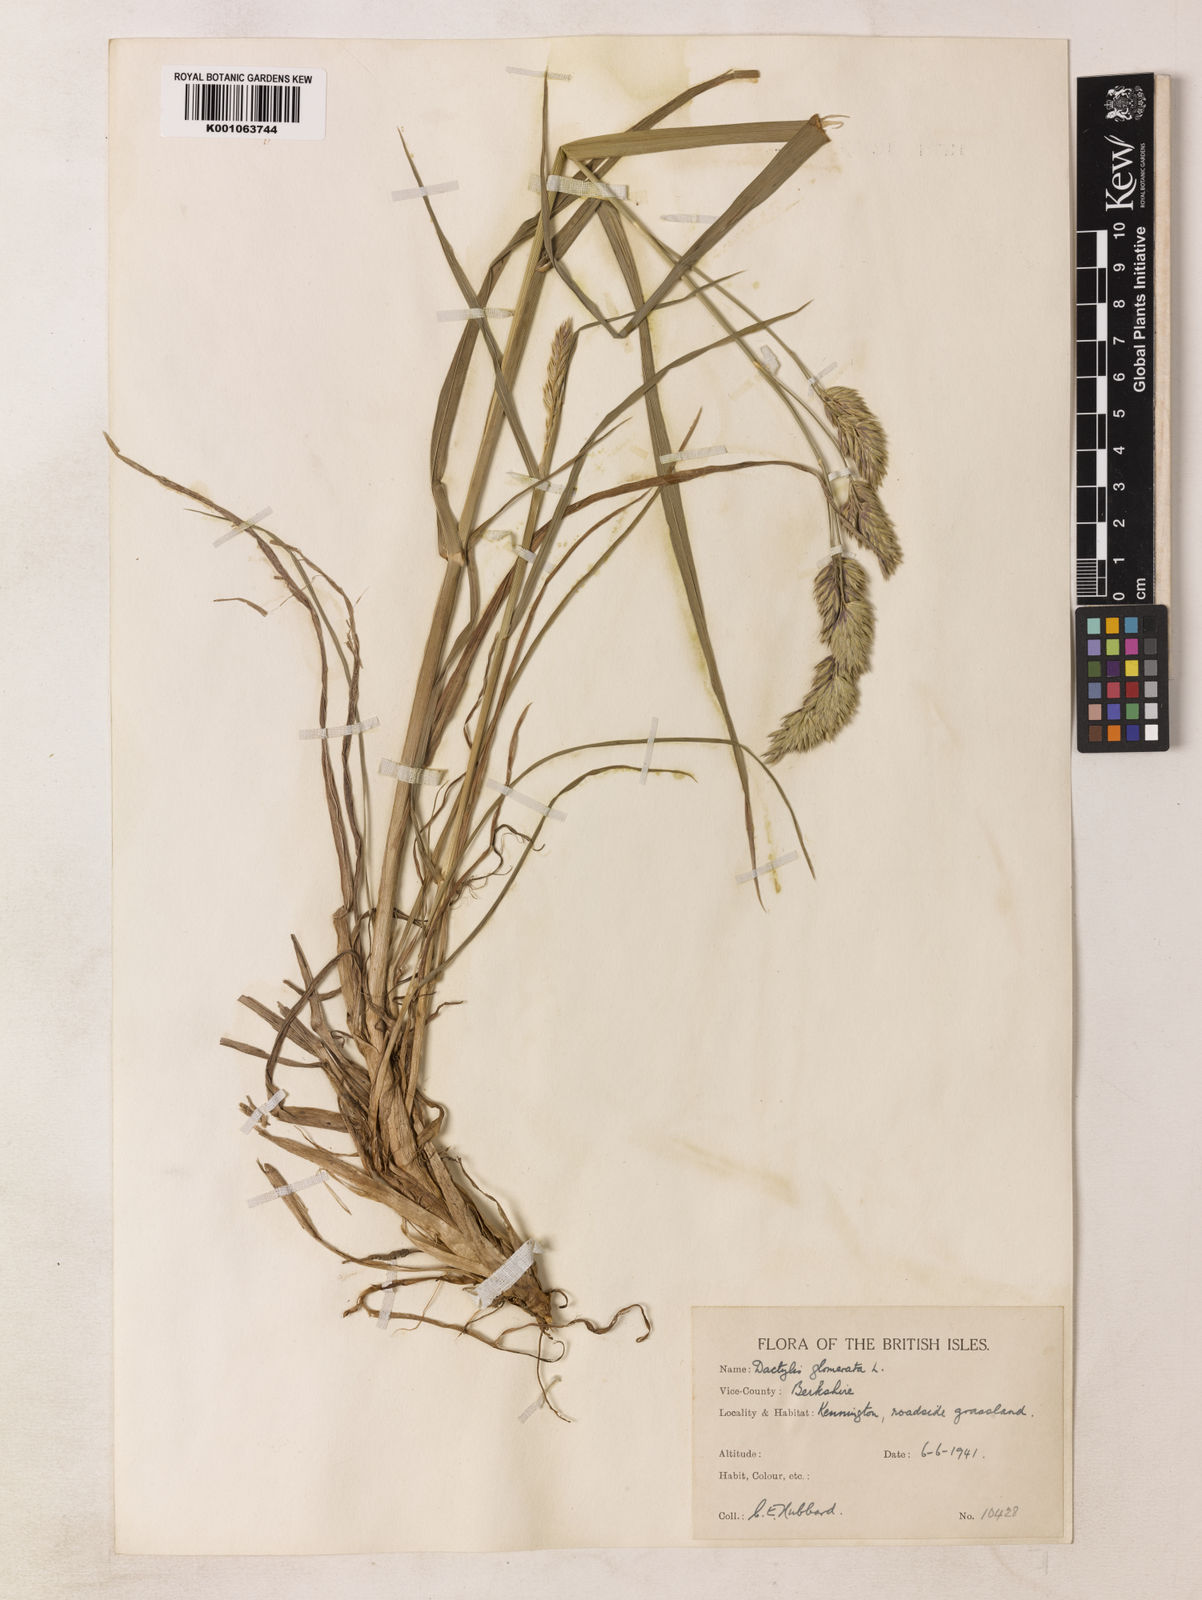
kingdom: Plantae
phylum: Tracheophyta
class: Liliopsida
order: Poales
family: Poaceae
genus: Dactylis
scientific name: Dactylis glomerata
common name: Orchardgrass
